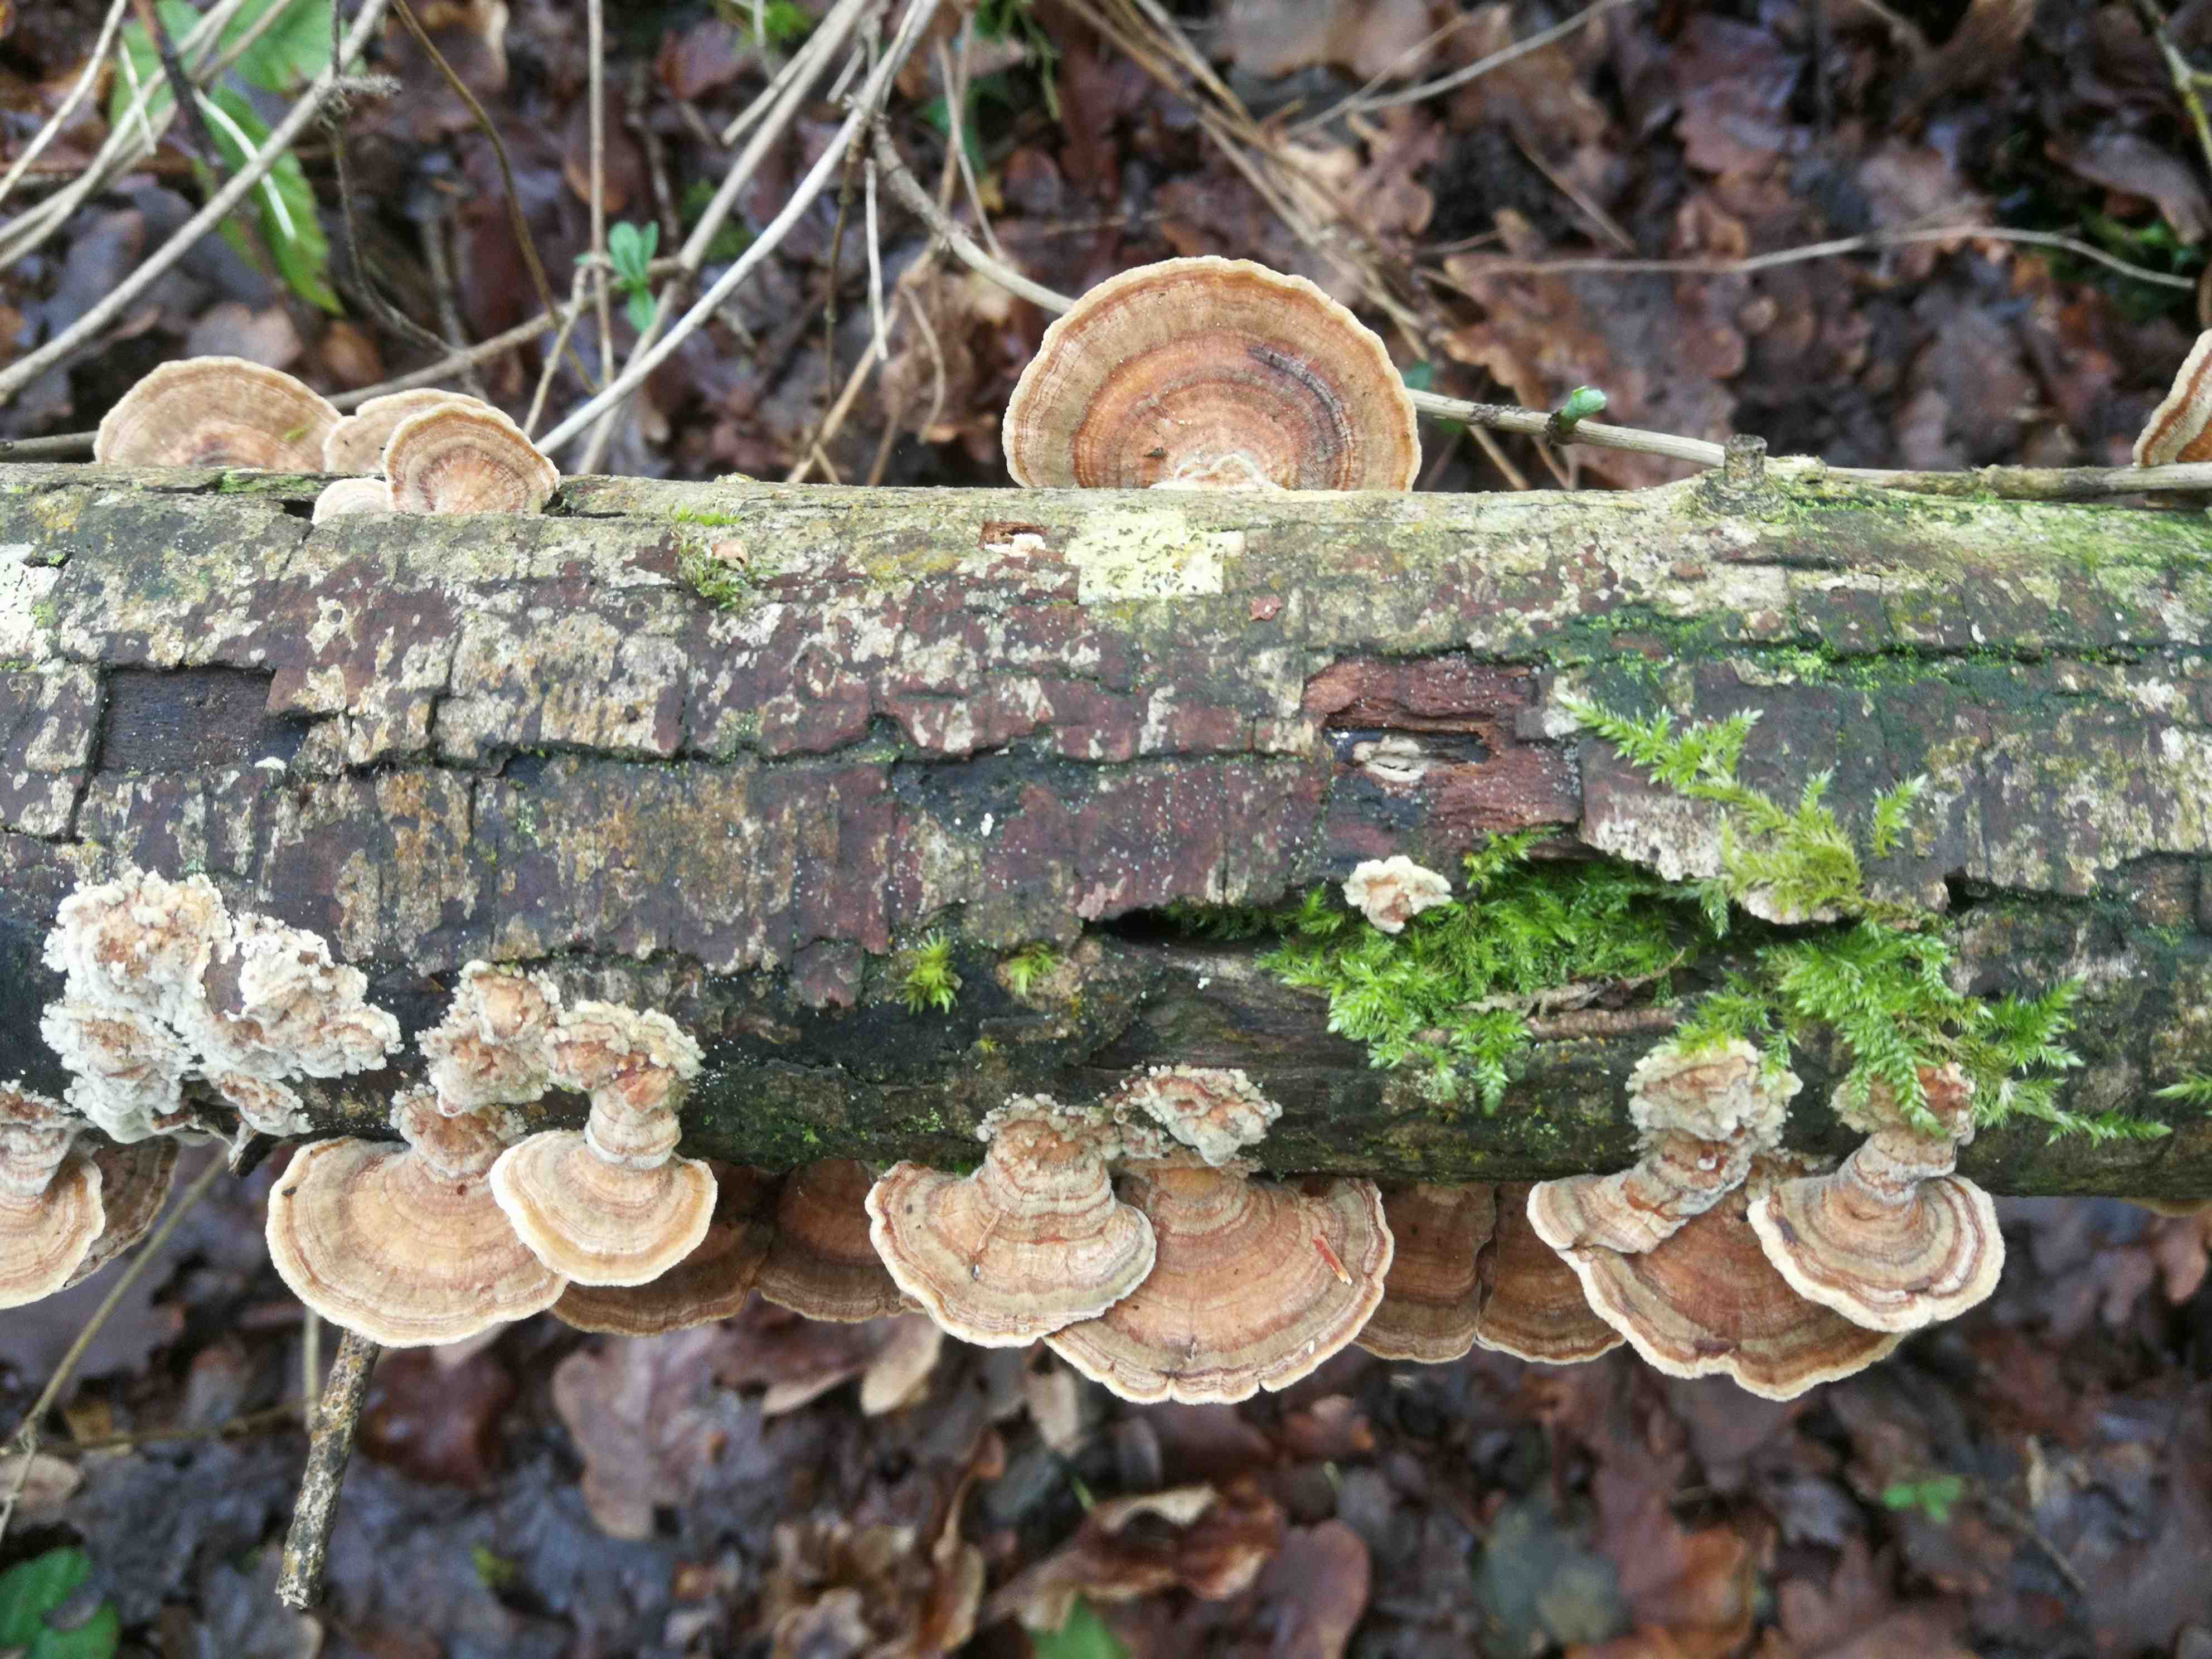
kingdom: Fungi
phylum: Basidiomycota
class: Agaricomycetes
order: Polyporales
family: Polyporaceae
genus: Trametes
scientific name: Trametes versicolor
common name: broget læderporesvamp
